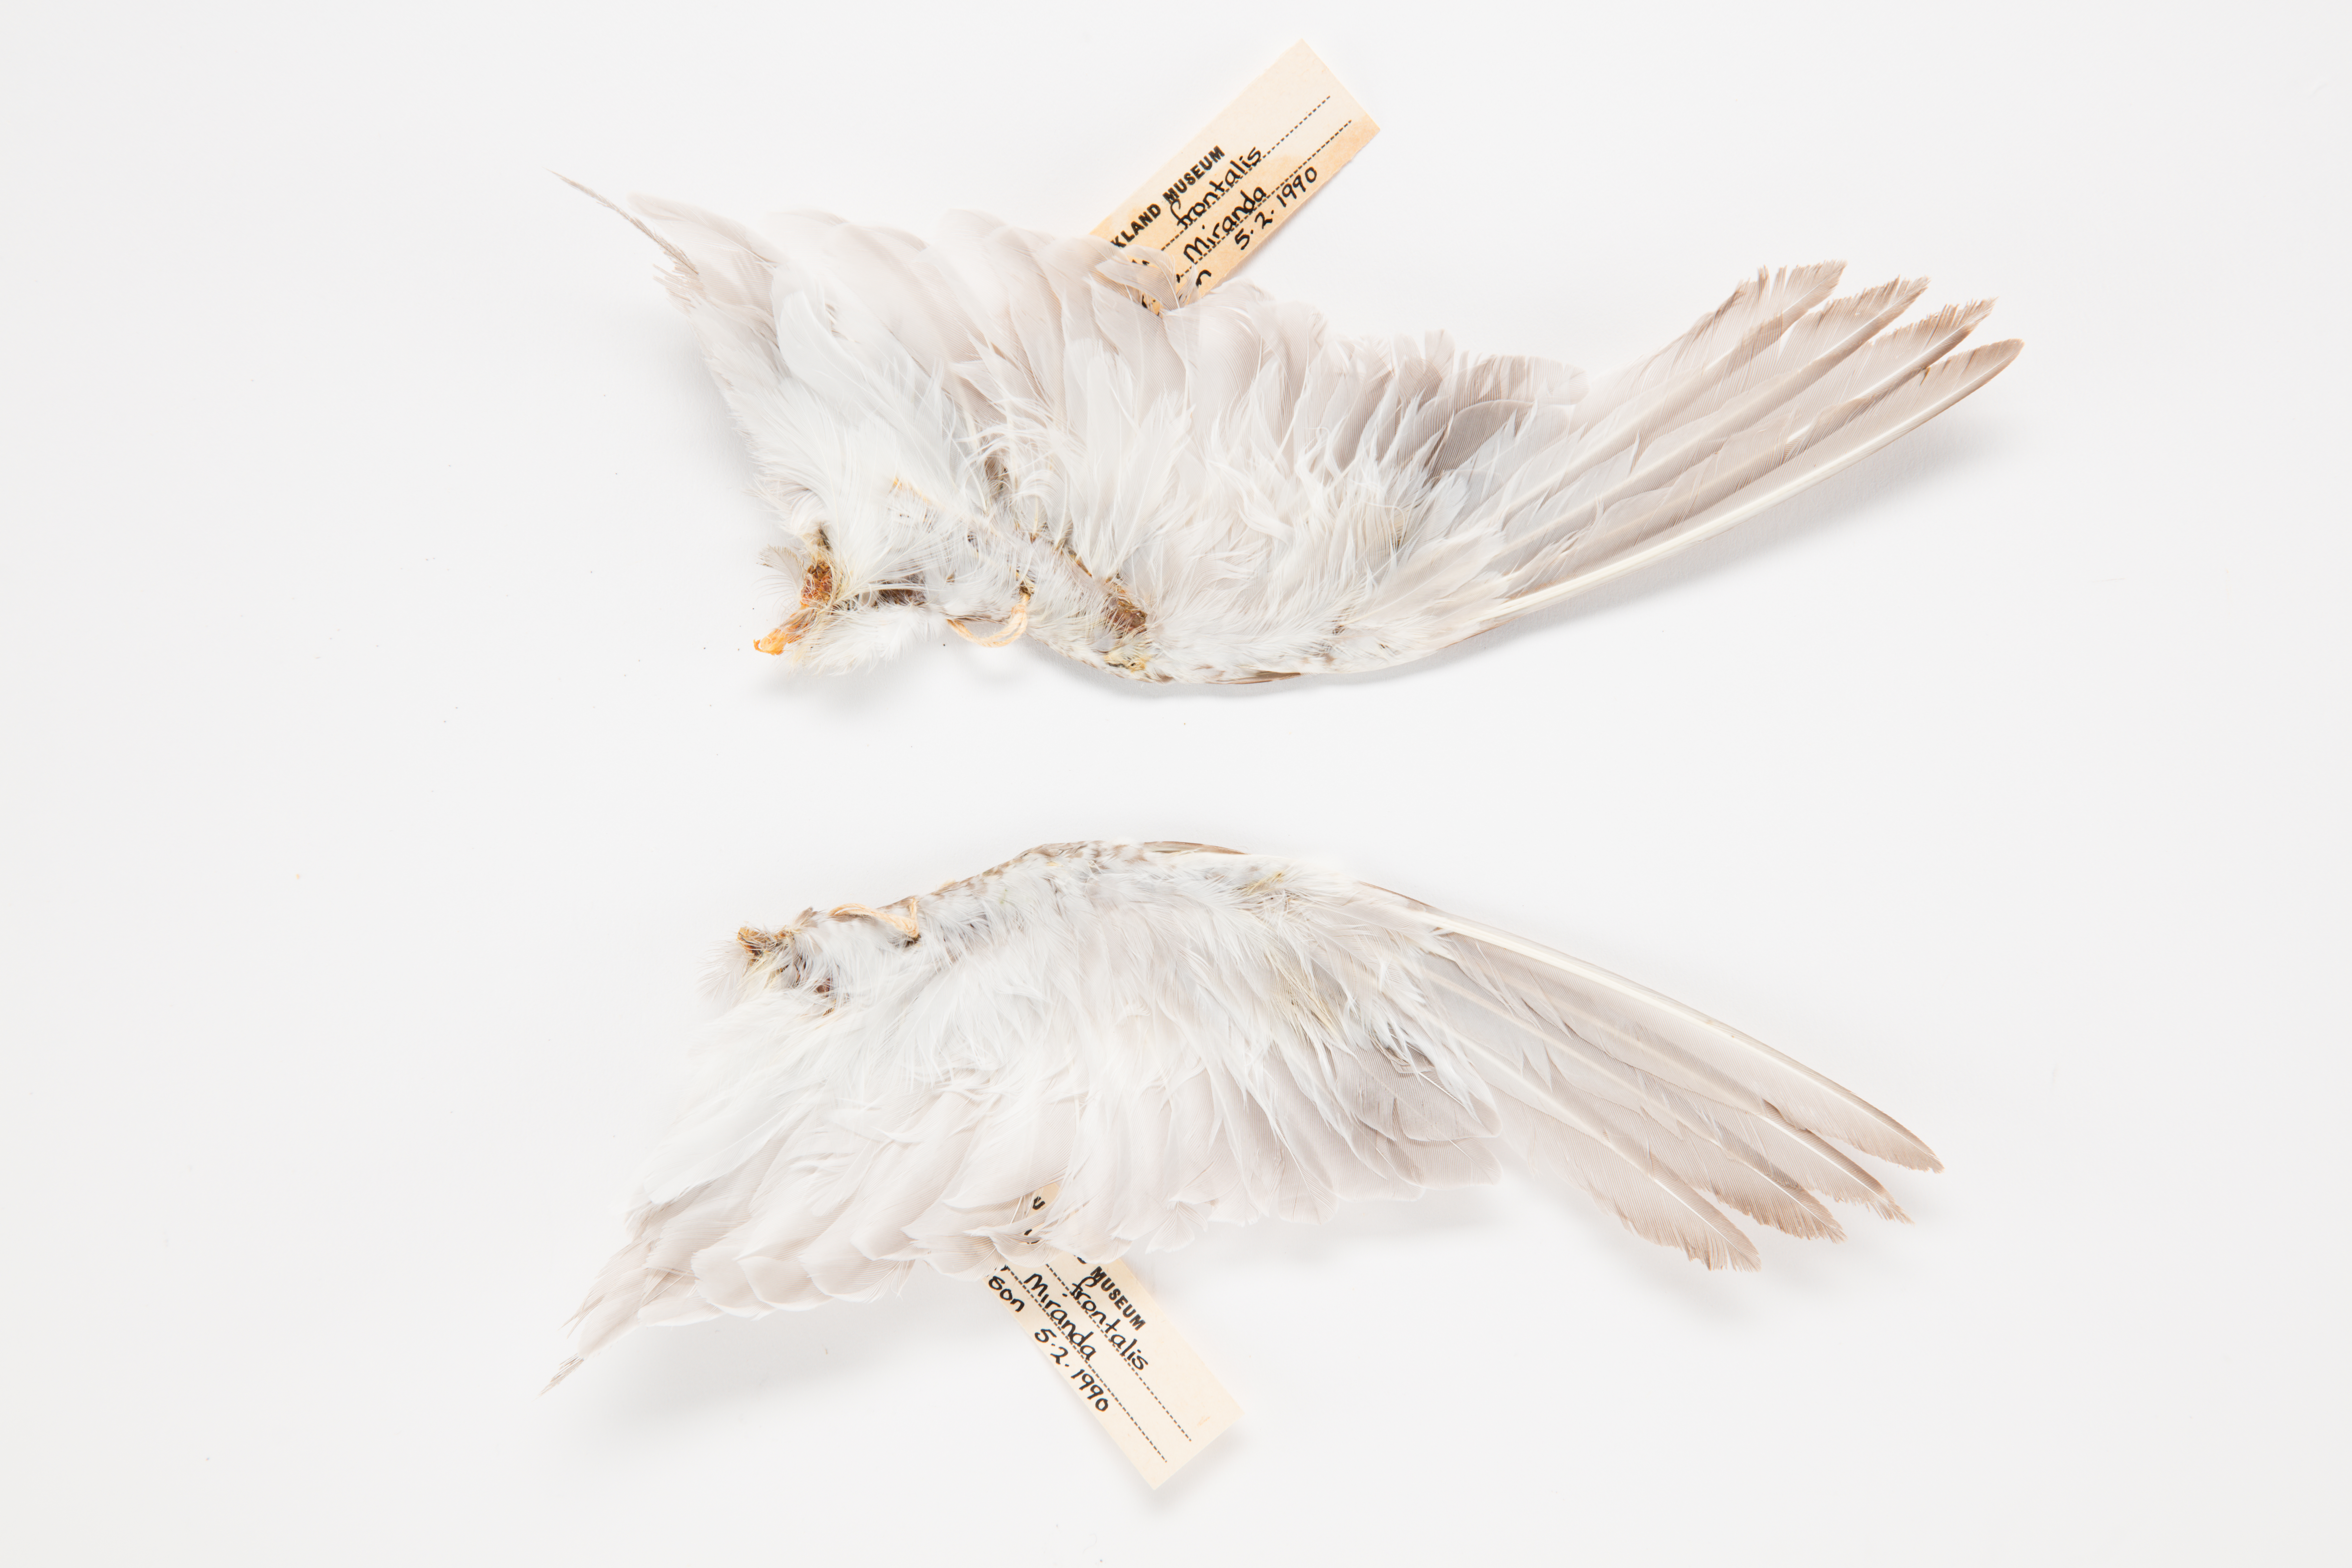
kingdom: Animalia
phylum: Chordata
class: Aves
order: Charadriiformes
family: Charadriidae
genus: Charadrius
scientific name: Charadrius frontalis
